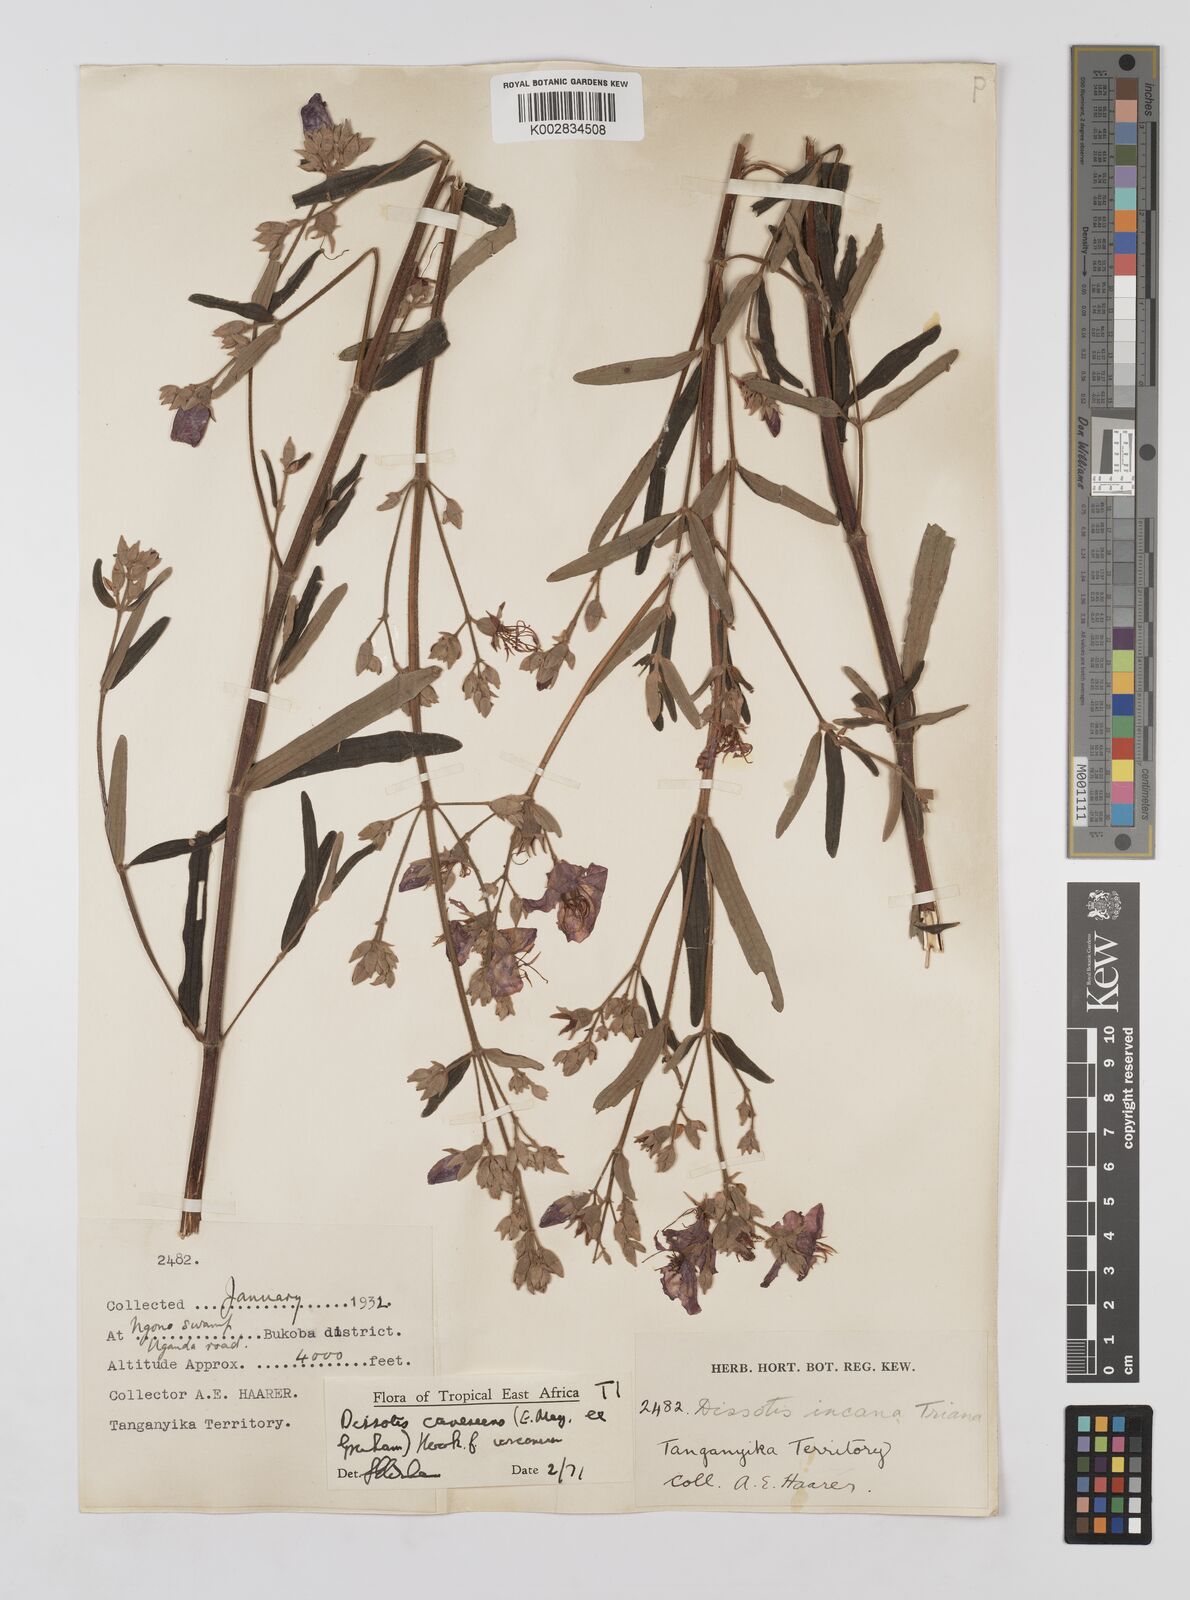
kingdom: Plantae
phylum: Tracheophyta
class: Magnoliopsida
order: Myrtales
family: Melastomataceae
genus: Argyrella
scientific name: Argyrella canescens
